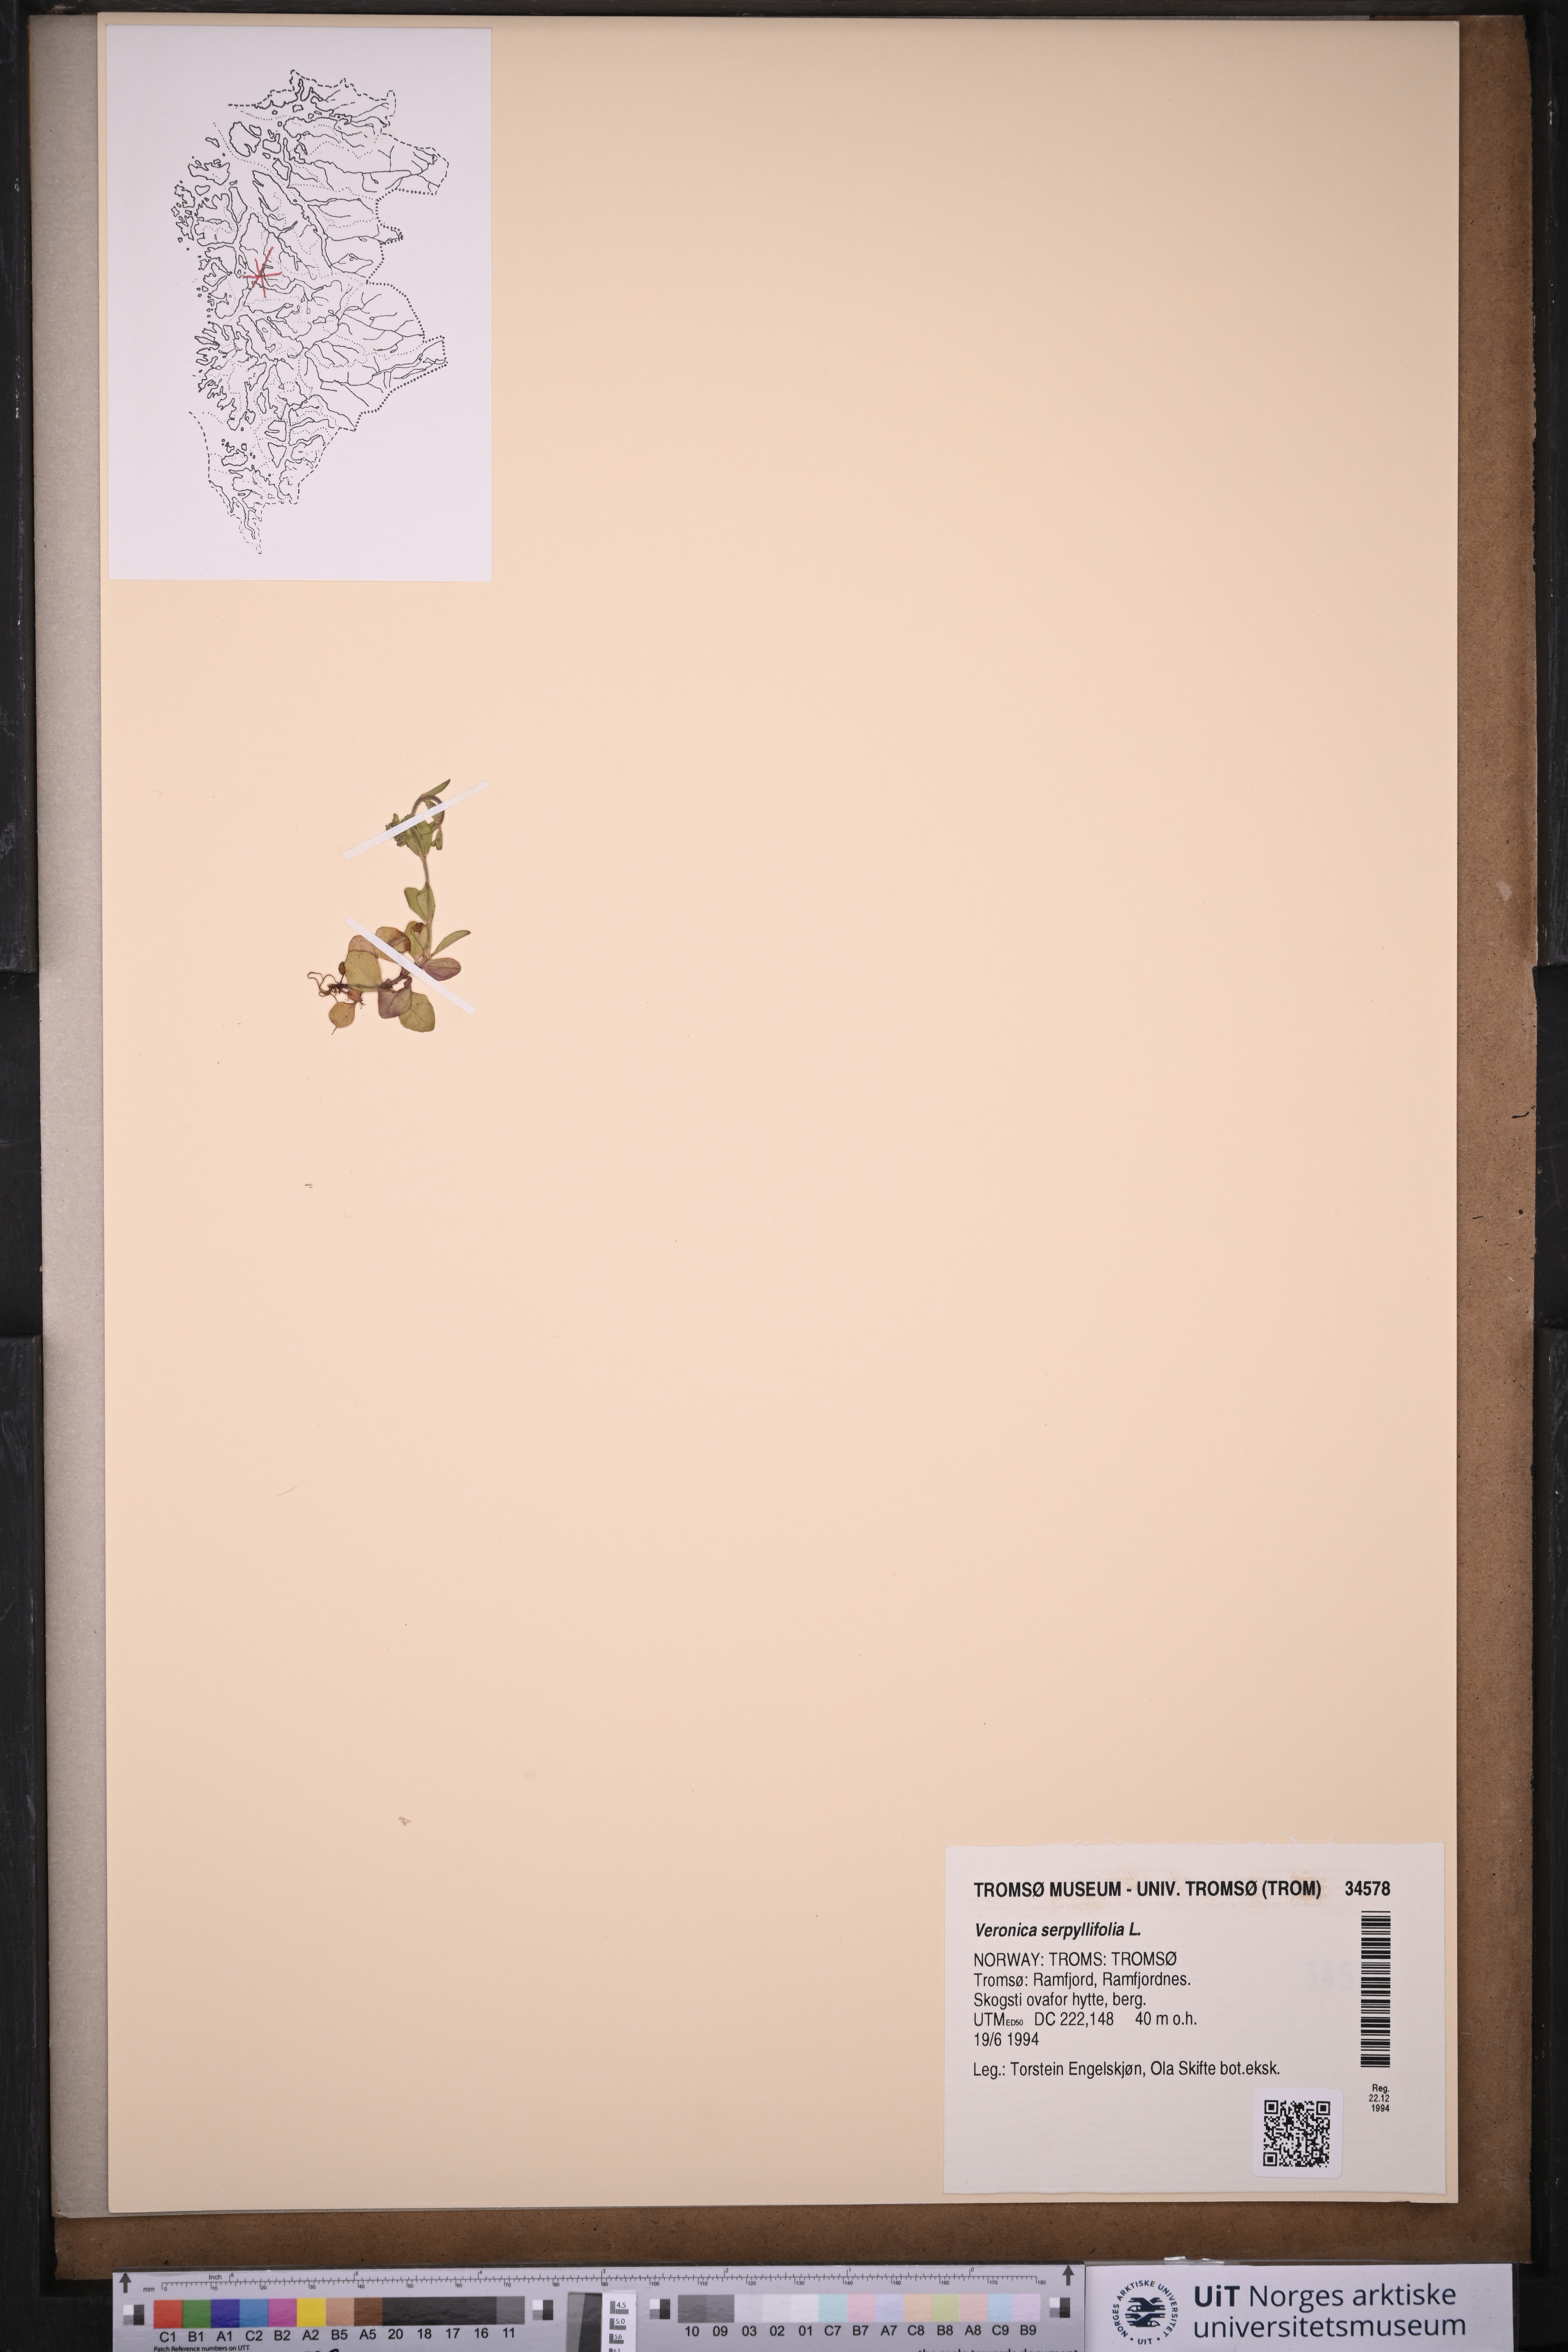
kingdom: Plantae
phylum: Tracheophyta
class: Magnoliopsida
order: Lamiales
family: Plantaginaceae
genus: Veronica
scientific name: Veronica serpyllifolia
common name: Thyme-leaved speedwell
